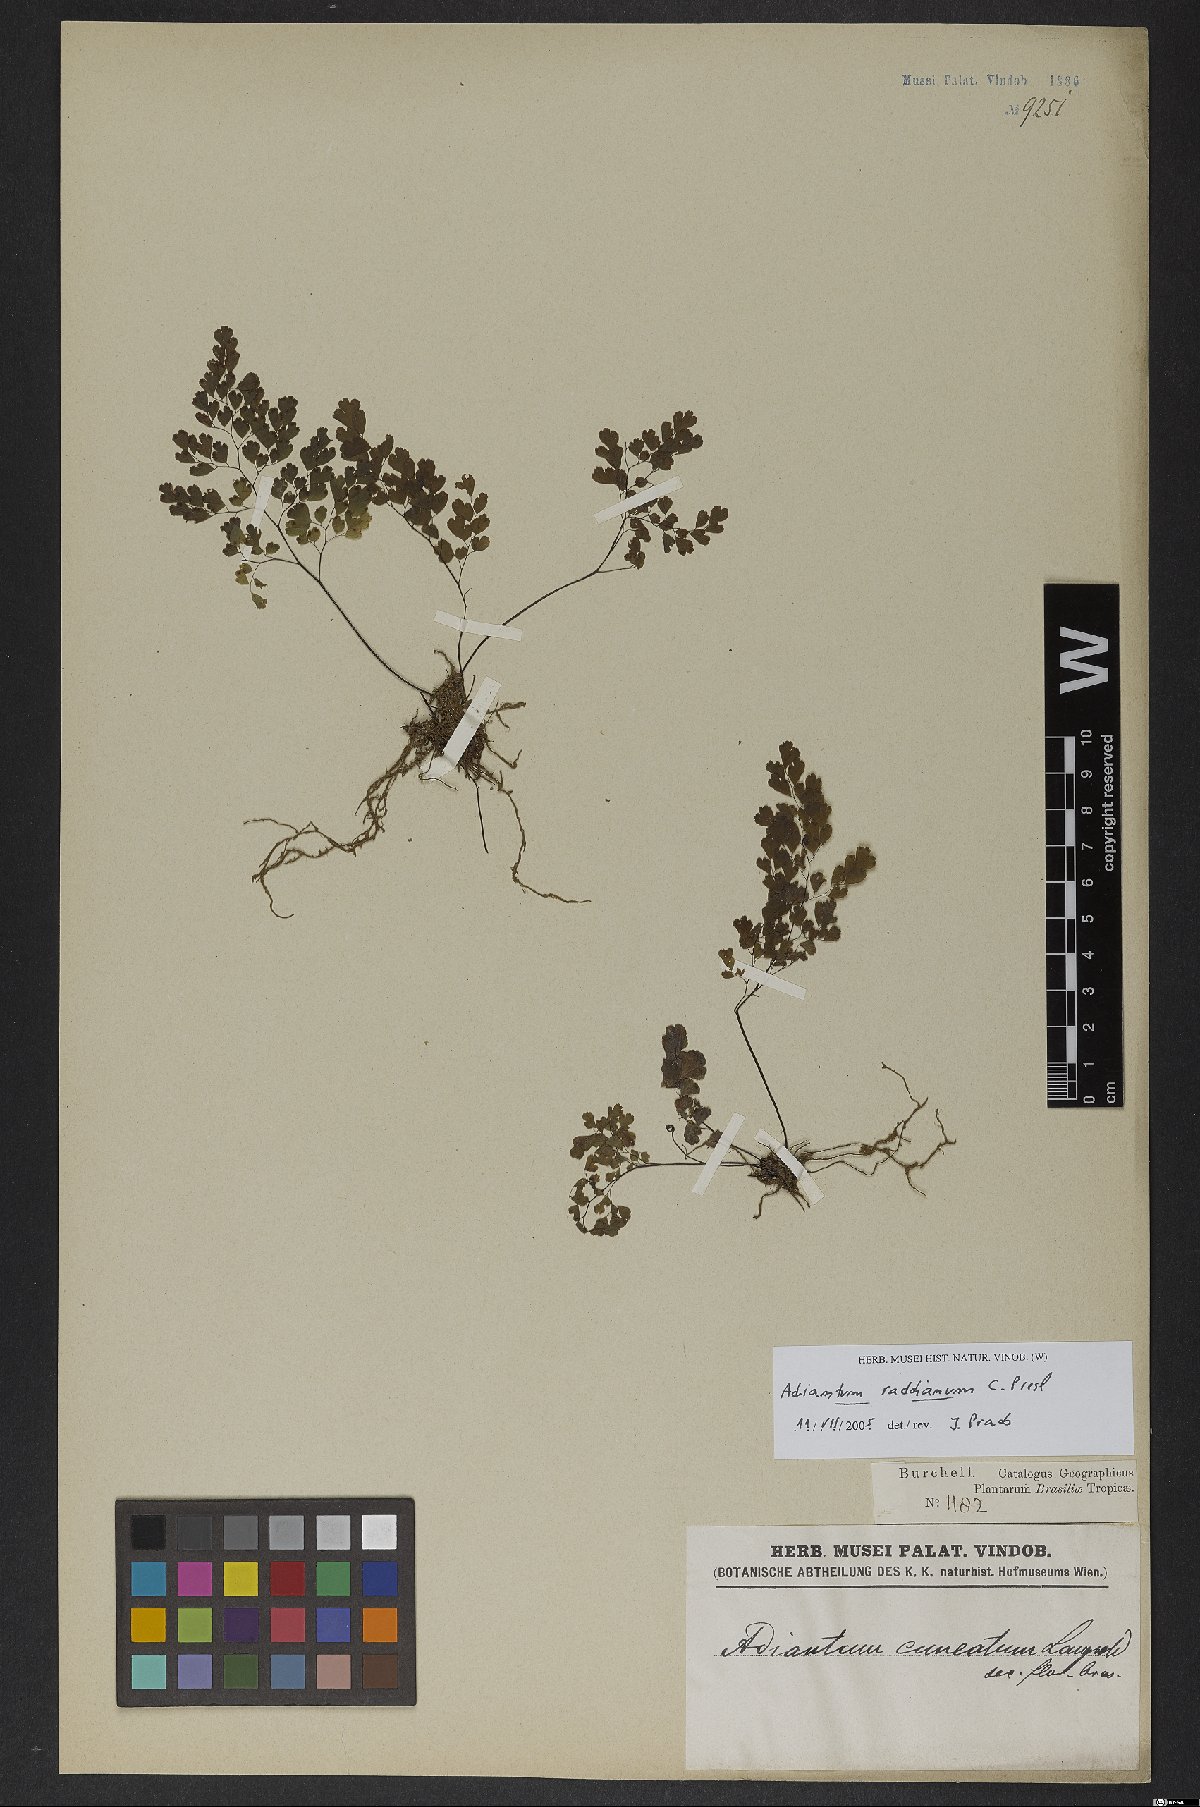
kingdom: Plantae
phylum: Tracheophyta
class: Polypodiopsida
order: Polypodiales
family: Pteridaceae
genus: Adiantum
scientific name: Adiantum raddianum
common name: Delta maidenhair fern
